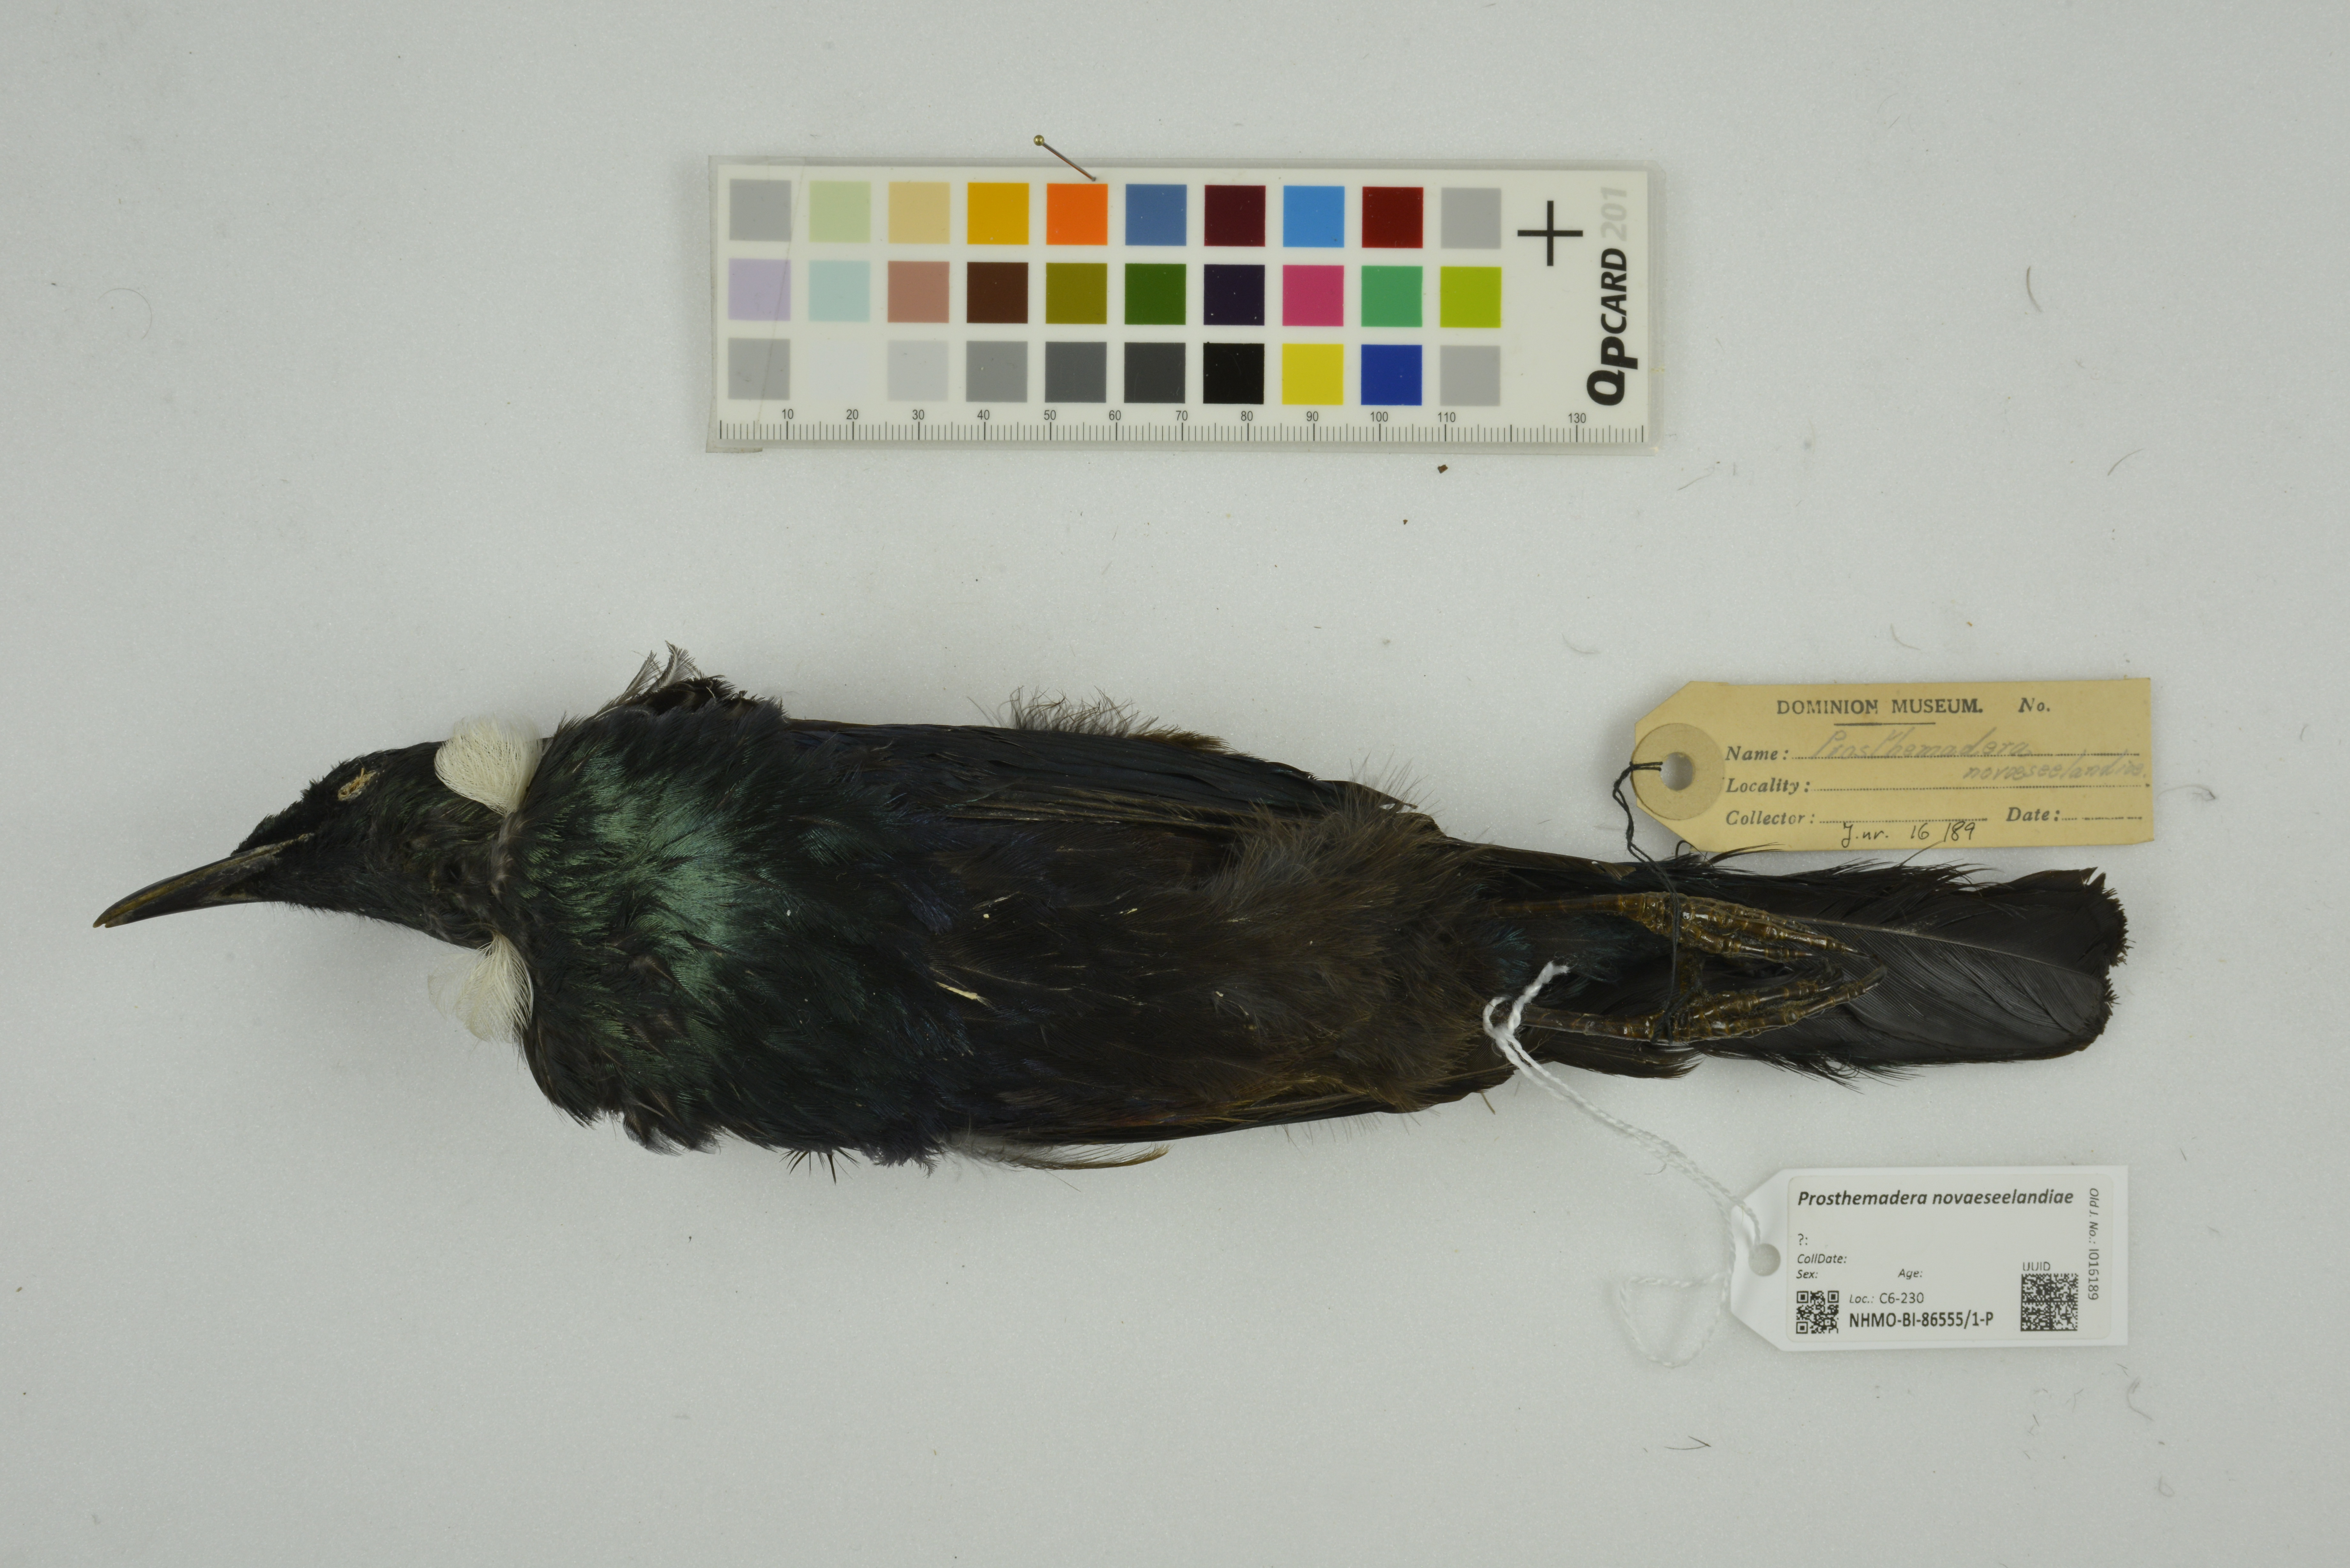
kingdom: Animalia
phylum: Chordata
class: Aves
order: Passeriformes
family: Meliphagidae
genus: Prosthemadera
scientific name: Prosthemadera novaeseelandiae
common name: Tui
